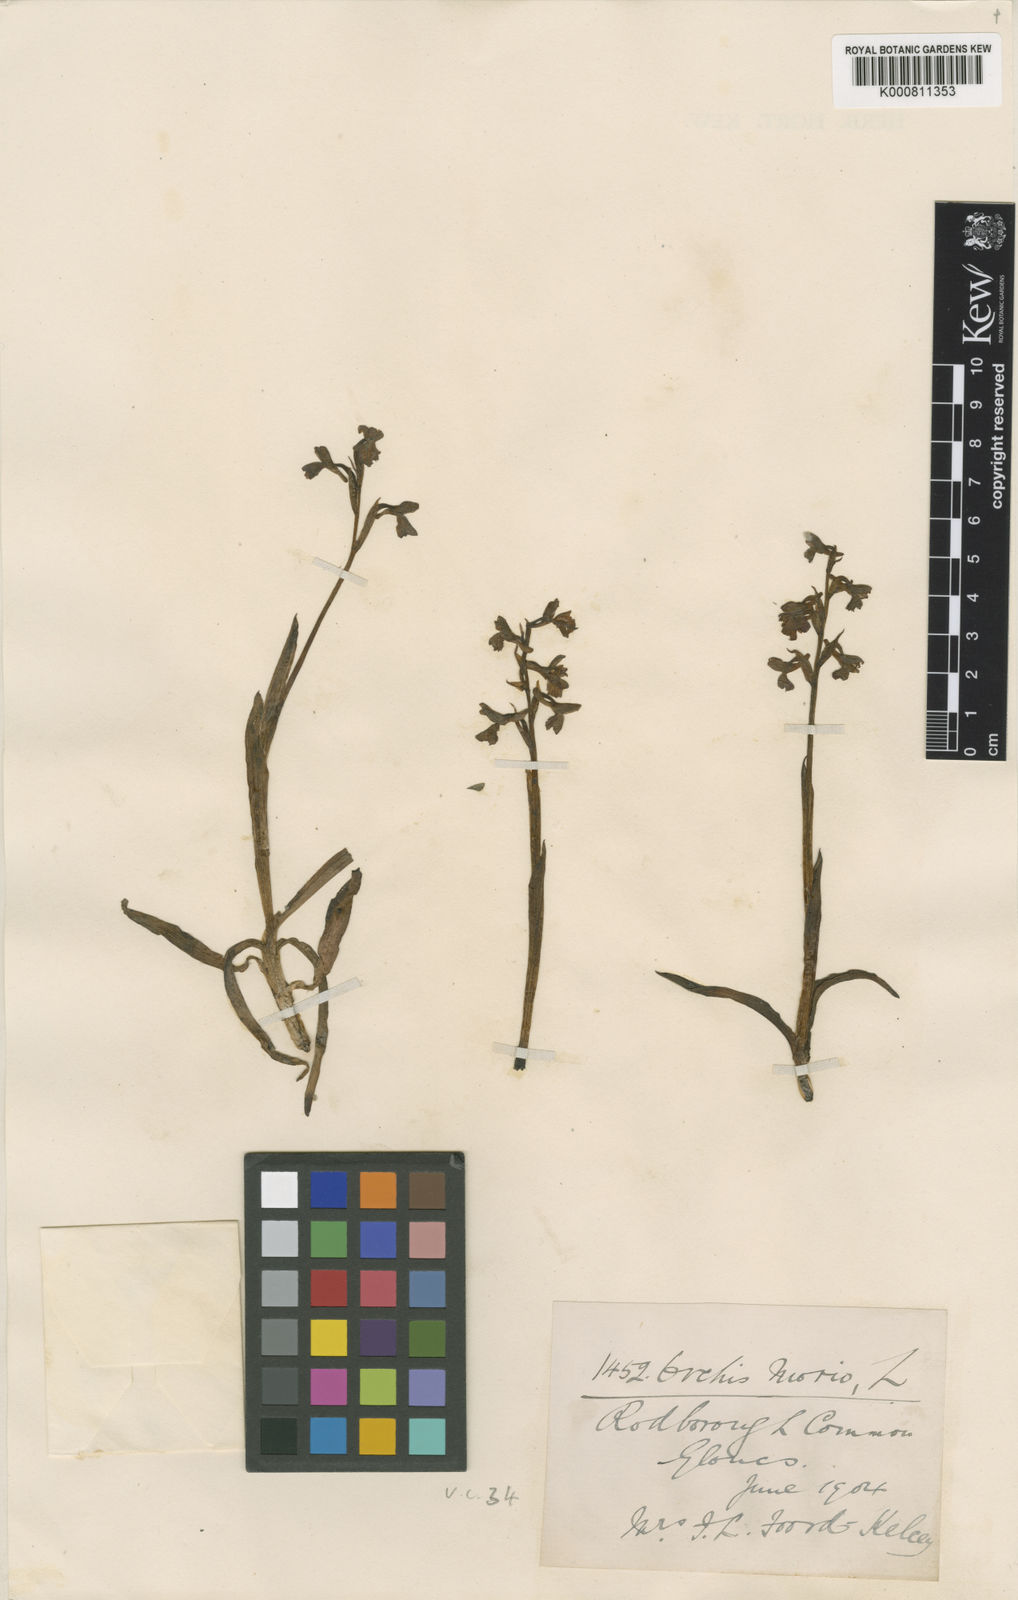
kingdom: Plantae
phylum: Tracheophyta
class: Liliopsida
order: Asparagales
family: Orchidaceae
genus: Anacamptis
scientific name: Anacamptis morio
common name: Green-winged orchid
